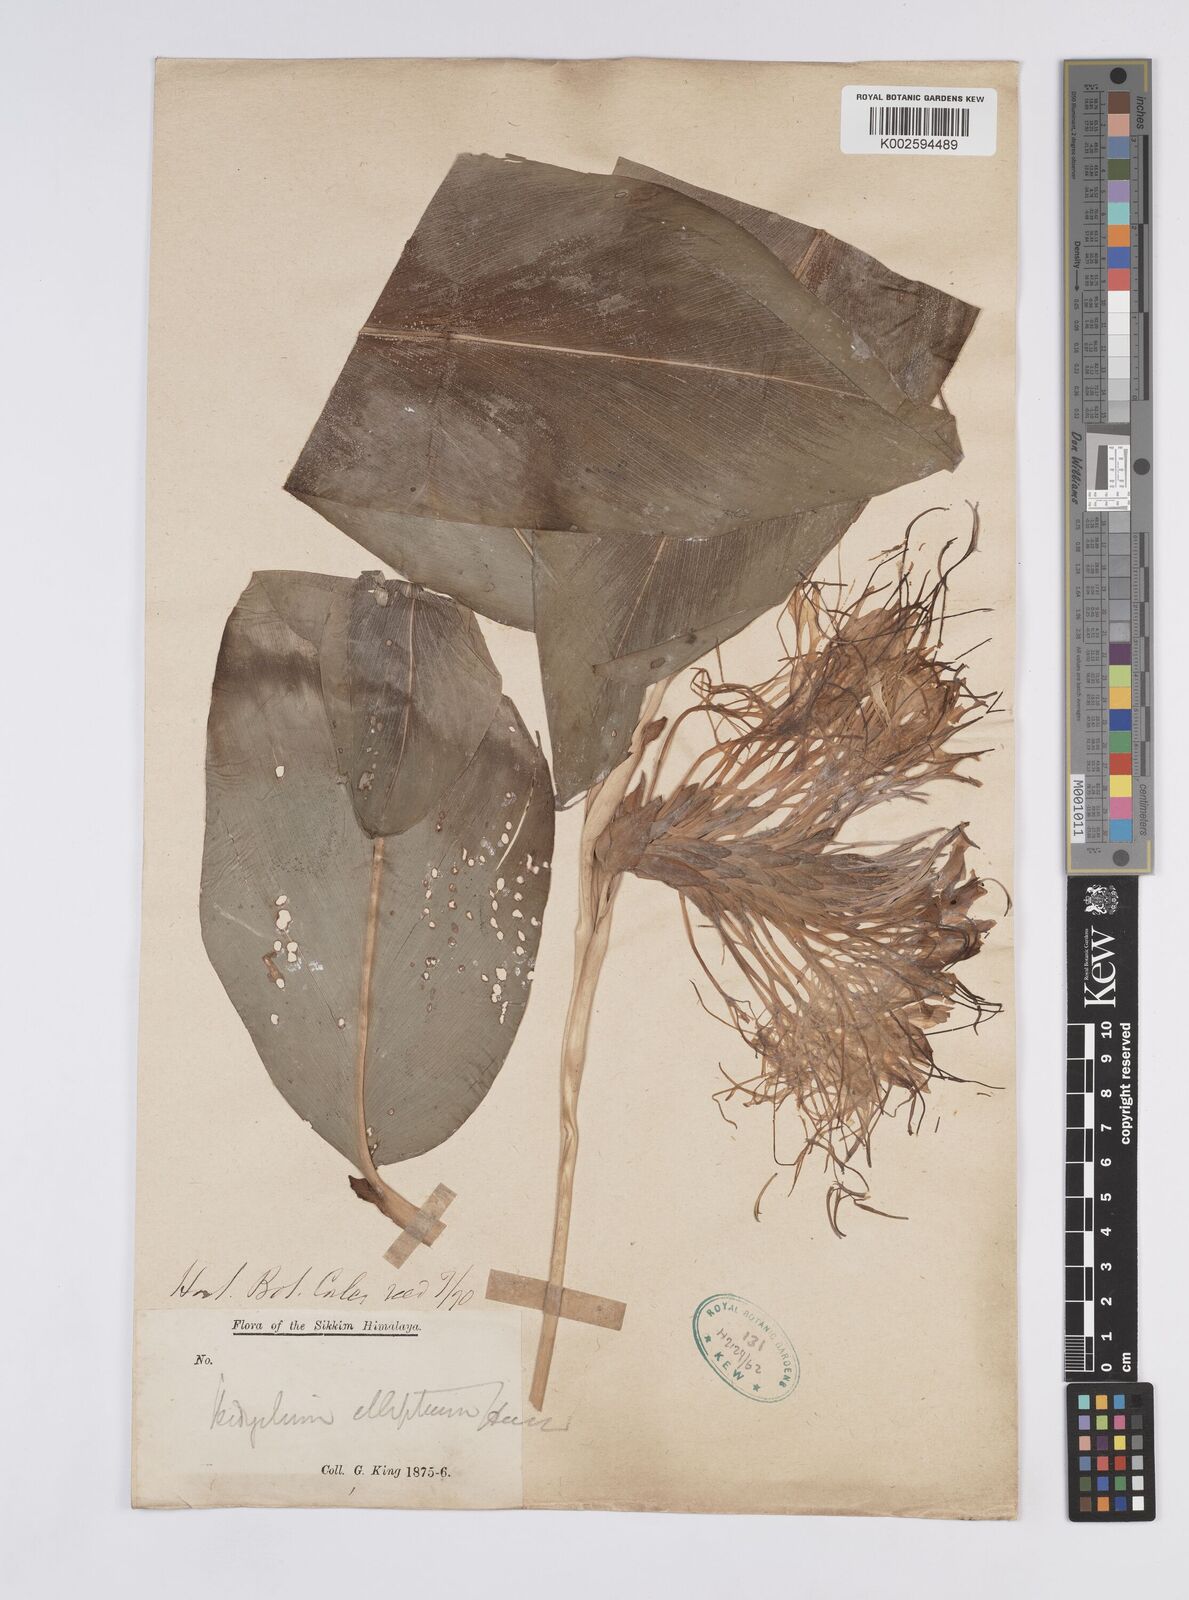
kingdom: Plantae
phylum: Tracheophyta
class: Liliopsida
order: Zingiberales
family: Zingiberaceae
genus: Hedychium
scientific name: Hedychium ellipticum
